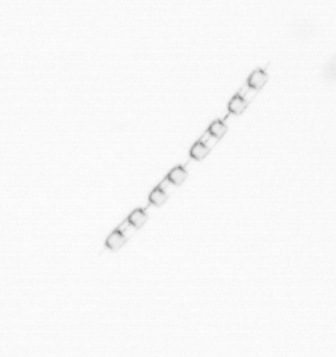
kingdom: Chromista
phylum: Ochrophyta
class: Bacillariophyceae
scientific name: Bacillariophyceae
